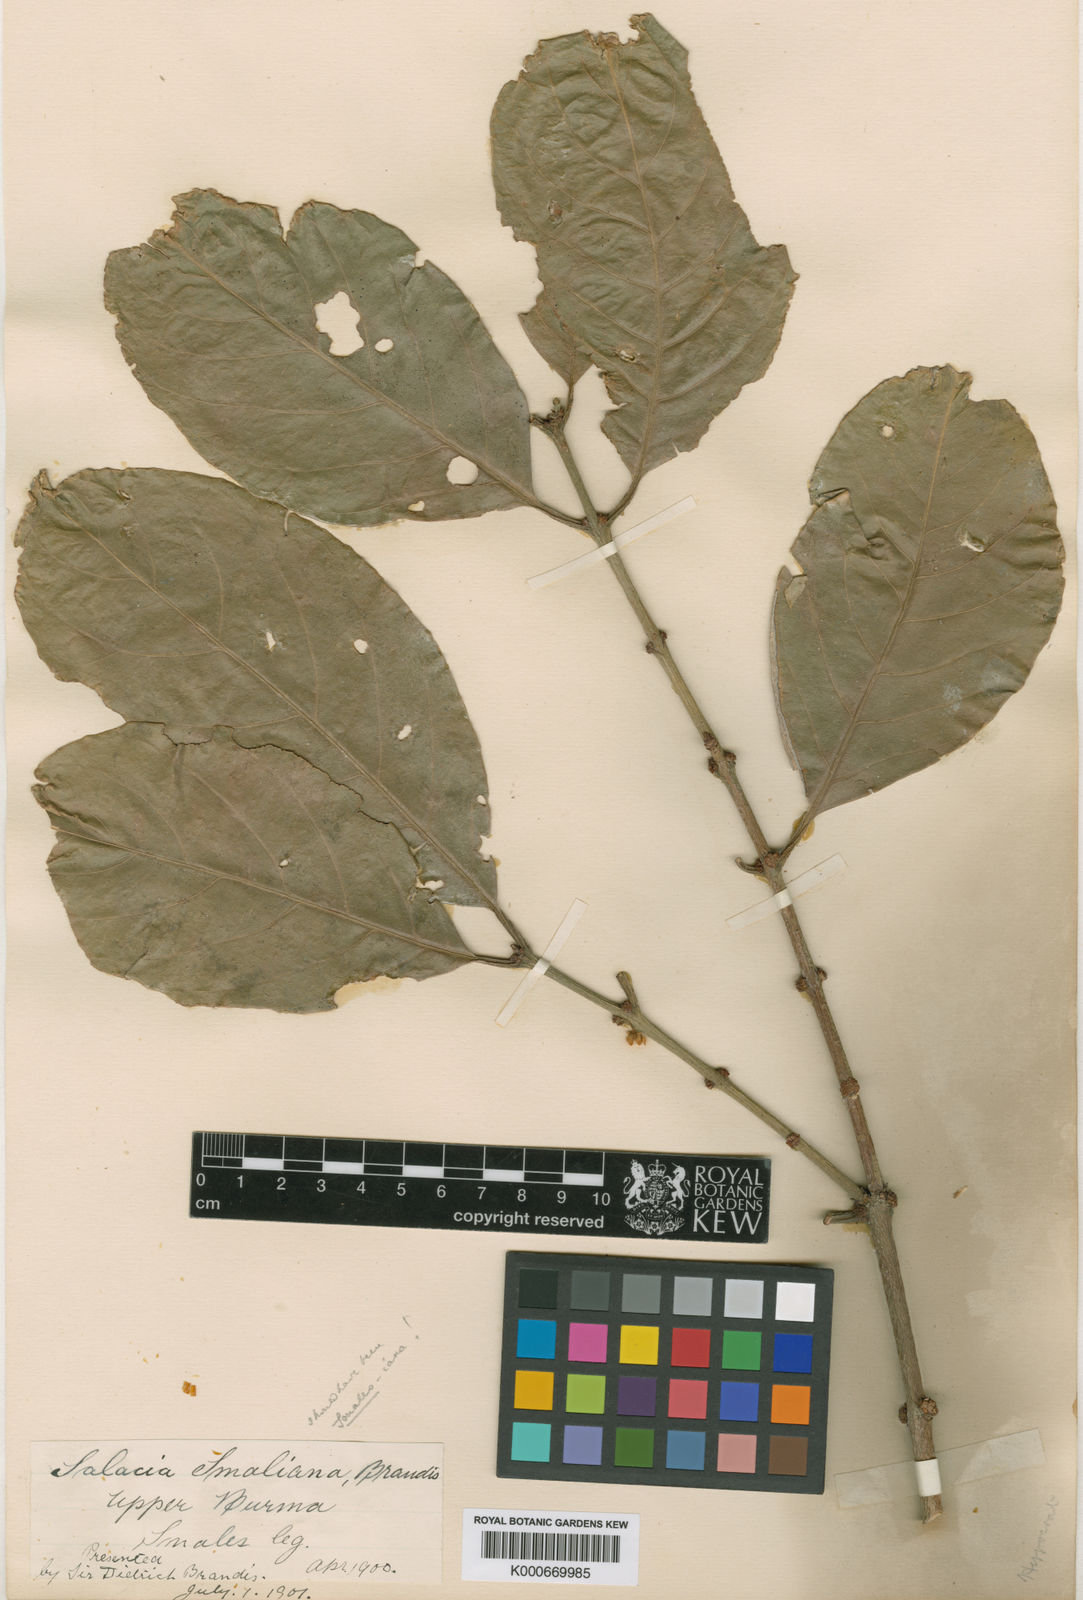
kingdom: Plantae
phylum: Tracheophyta
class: Magnoliopsida
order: Celastrales
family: Celastraceae
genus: Salacia
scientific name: Salacia smaliana
